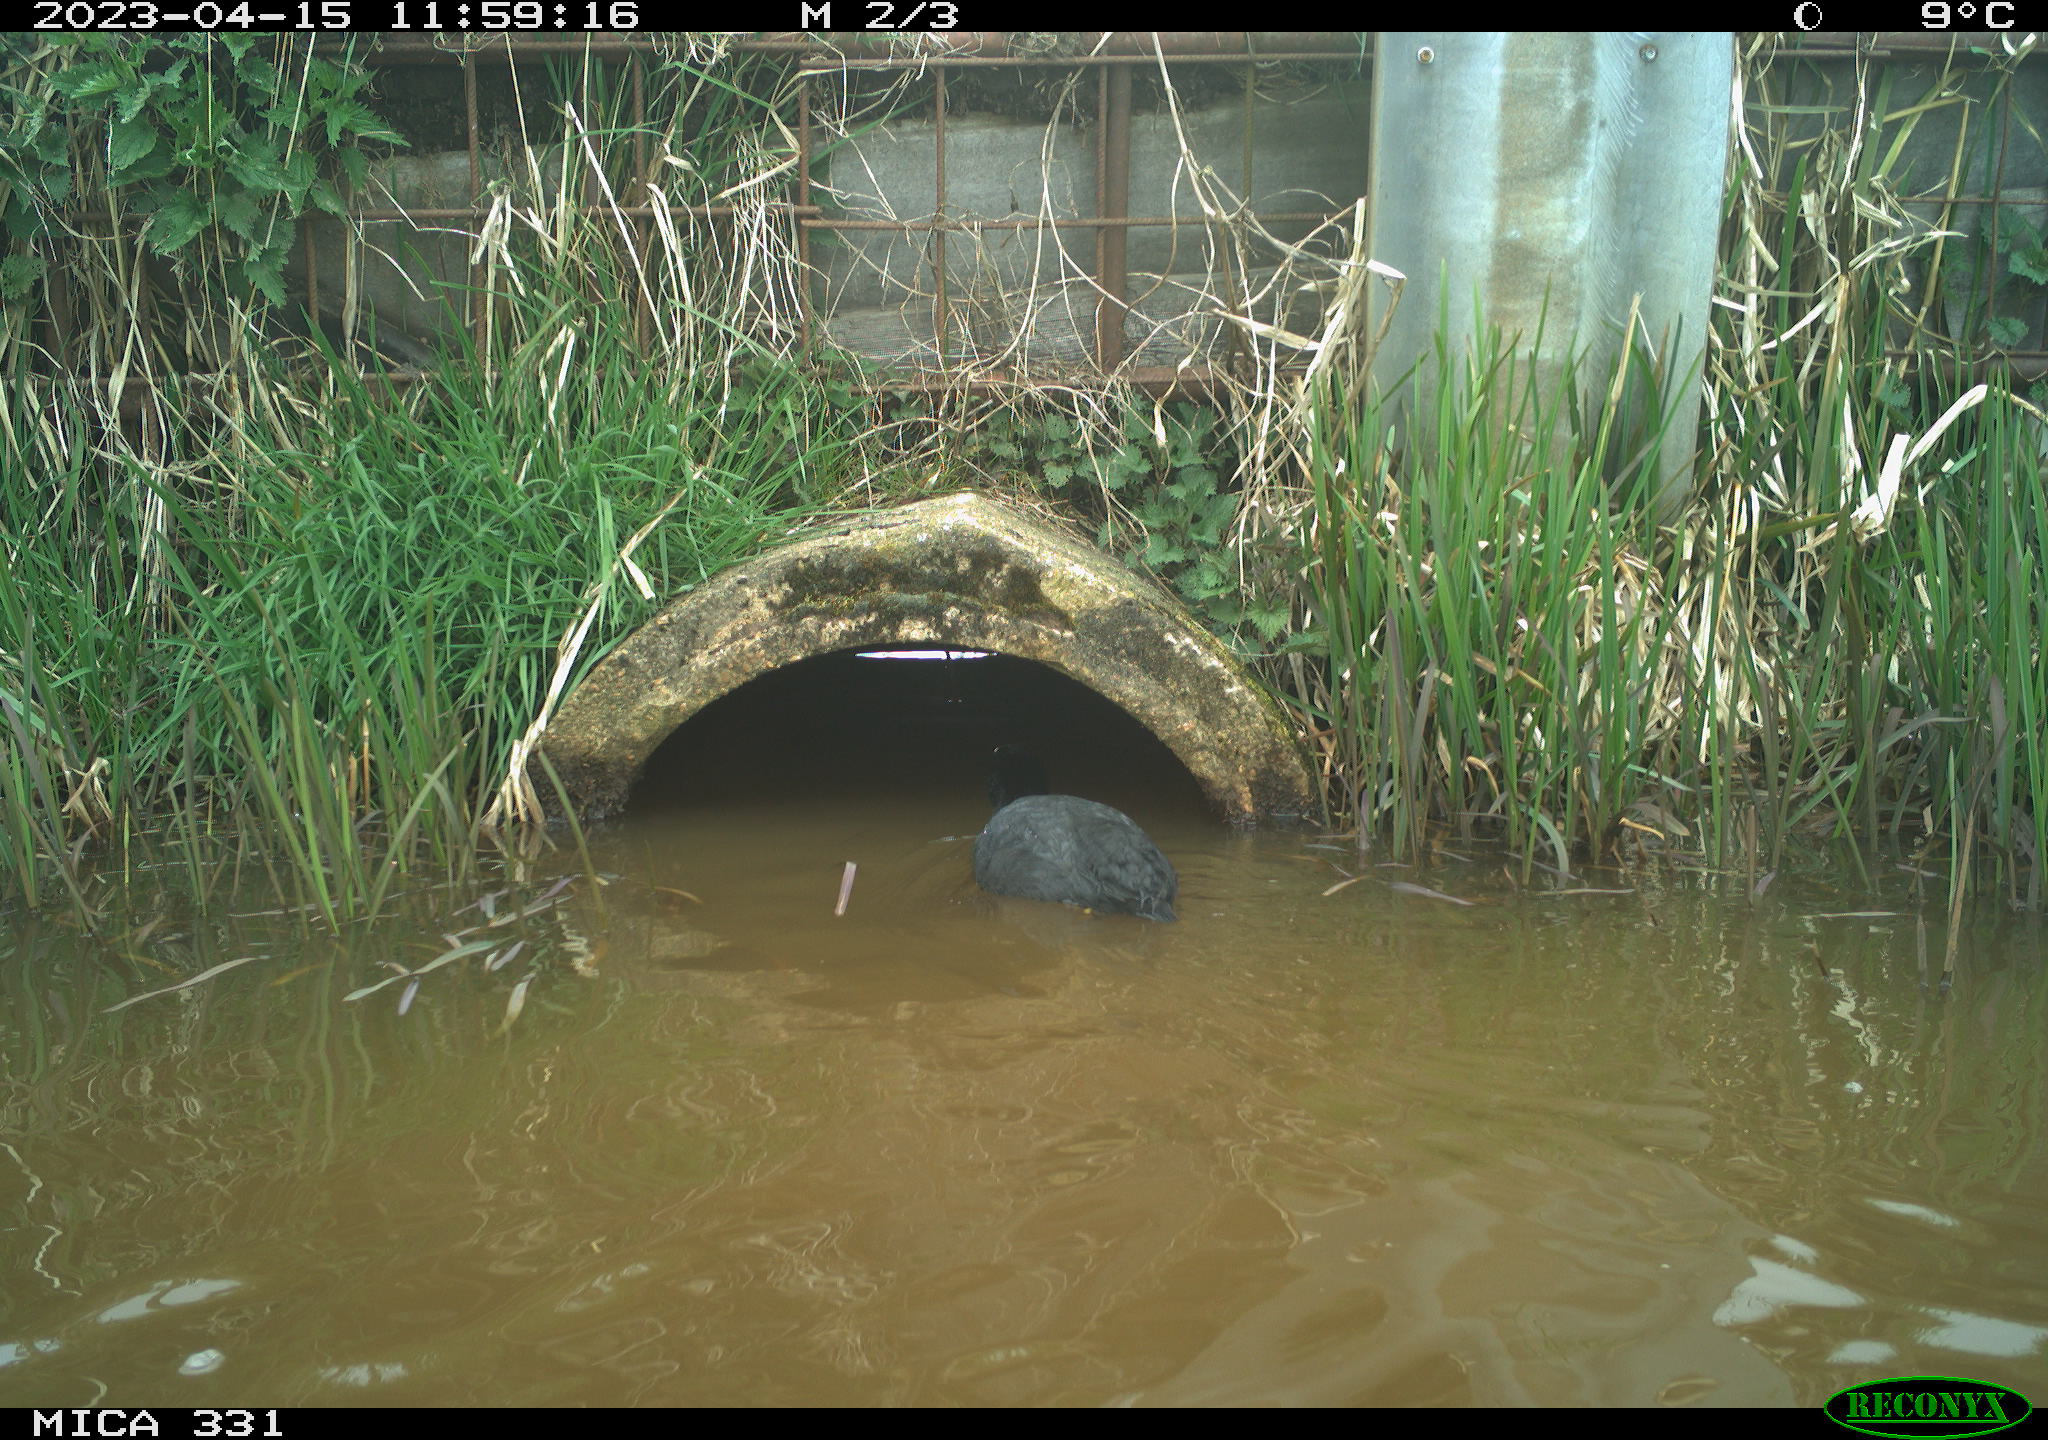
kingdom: Animalia
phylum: Chordata
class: Aves
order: Gruiformes
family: Rallidae
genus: Fulica
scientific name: Fulica atra
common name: Eurasian coot
